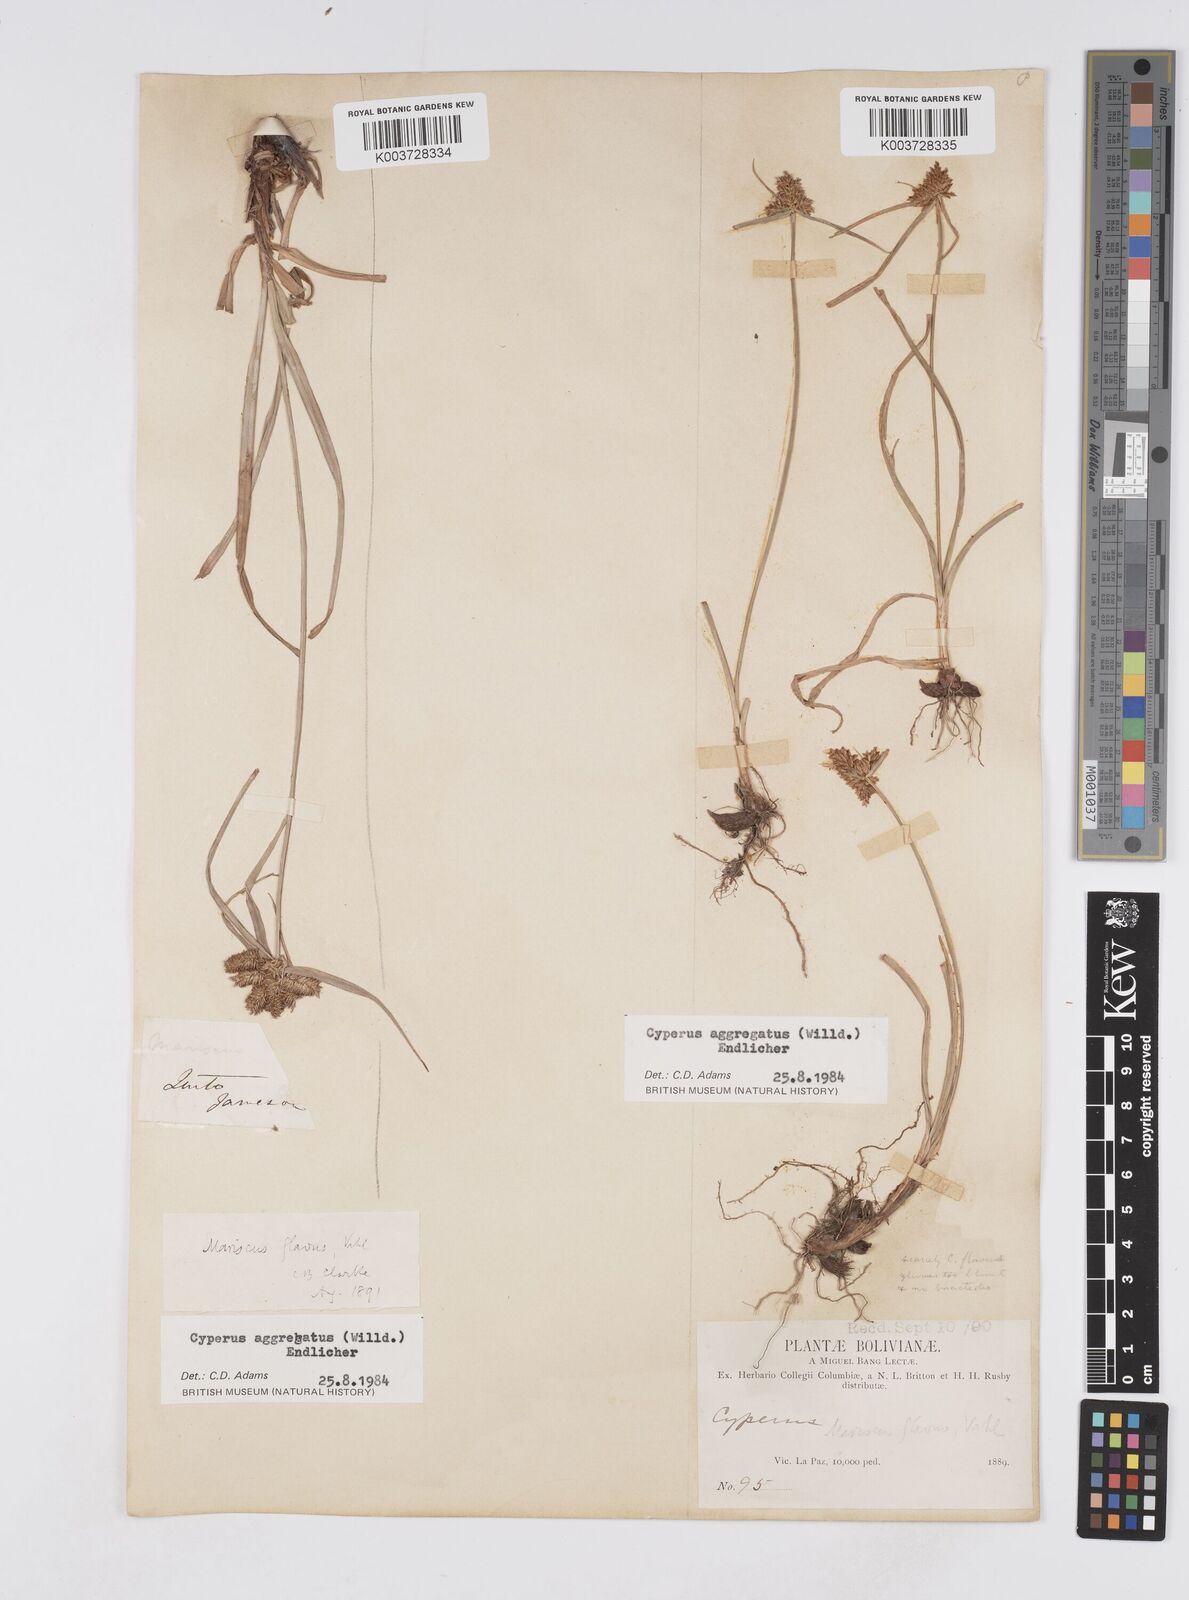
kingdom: Plantae
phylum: Tracheophyta
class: Liliopsida
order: Poales
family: Cyperaceae
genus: Cyperus
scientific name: Cyperus aggregatus
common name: Inflatedscale flatsedge
